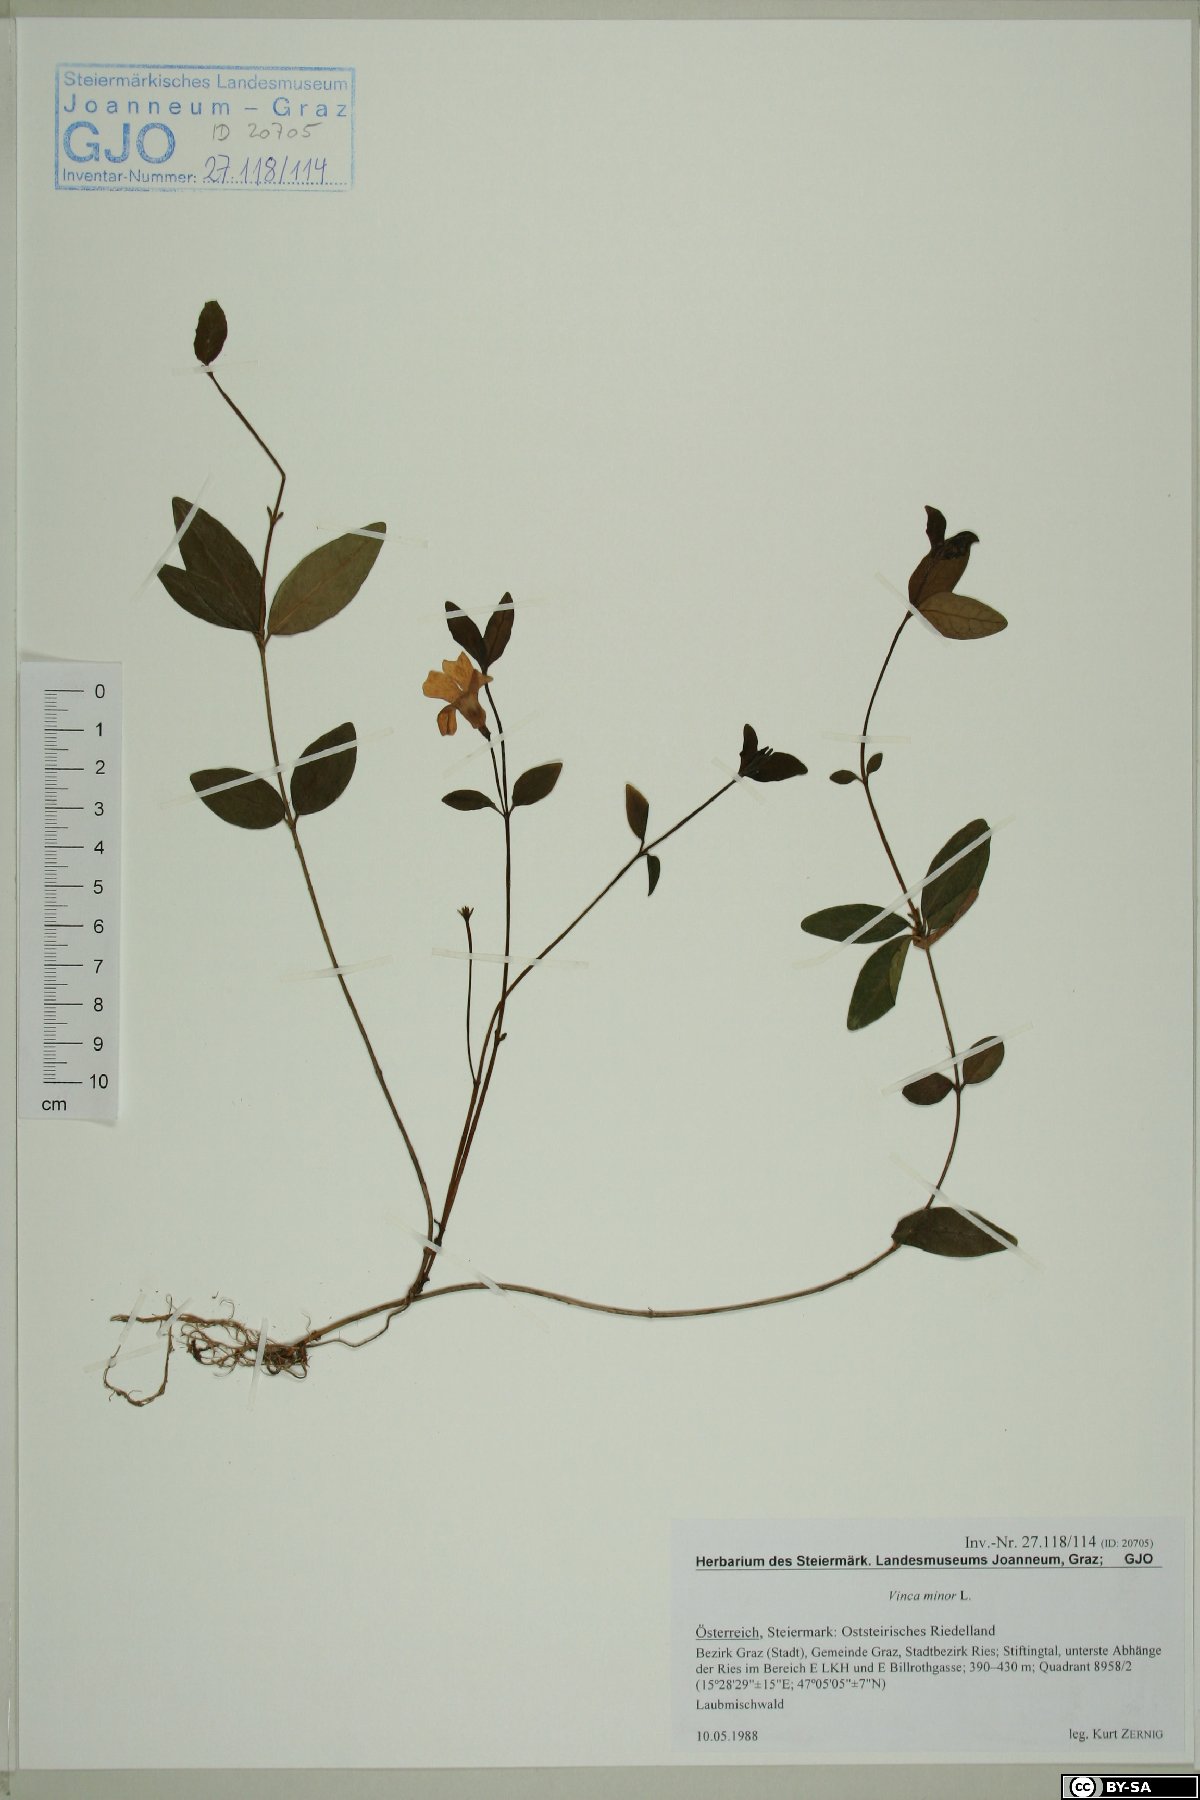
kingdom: Plantae
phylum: Tracheophyta
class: Magnoliopsida
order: Gentianales
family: Apocynaceae
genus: Vinca
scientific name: Vinca minor
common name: Lesser periwinkle
